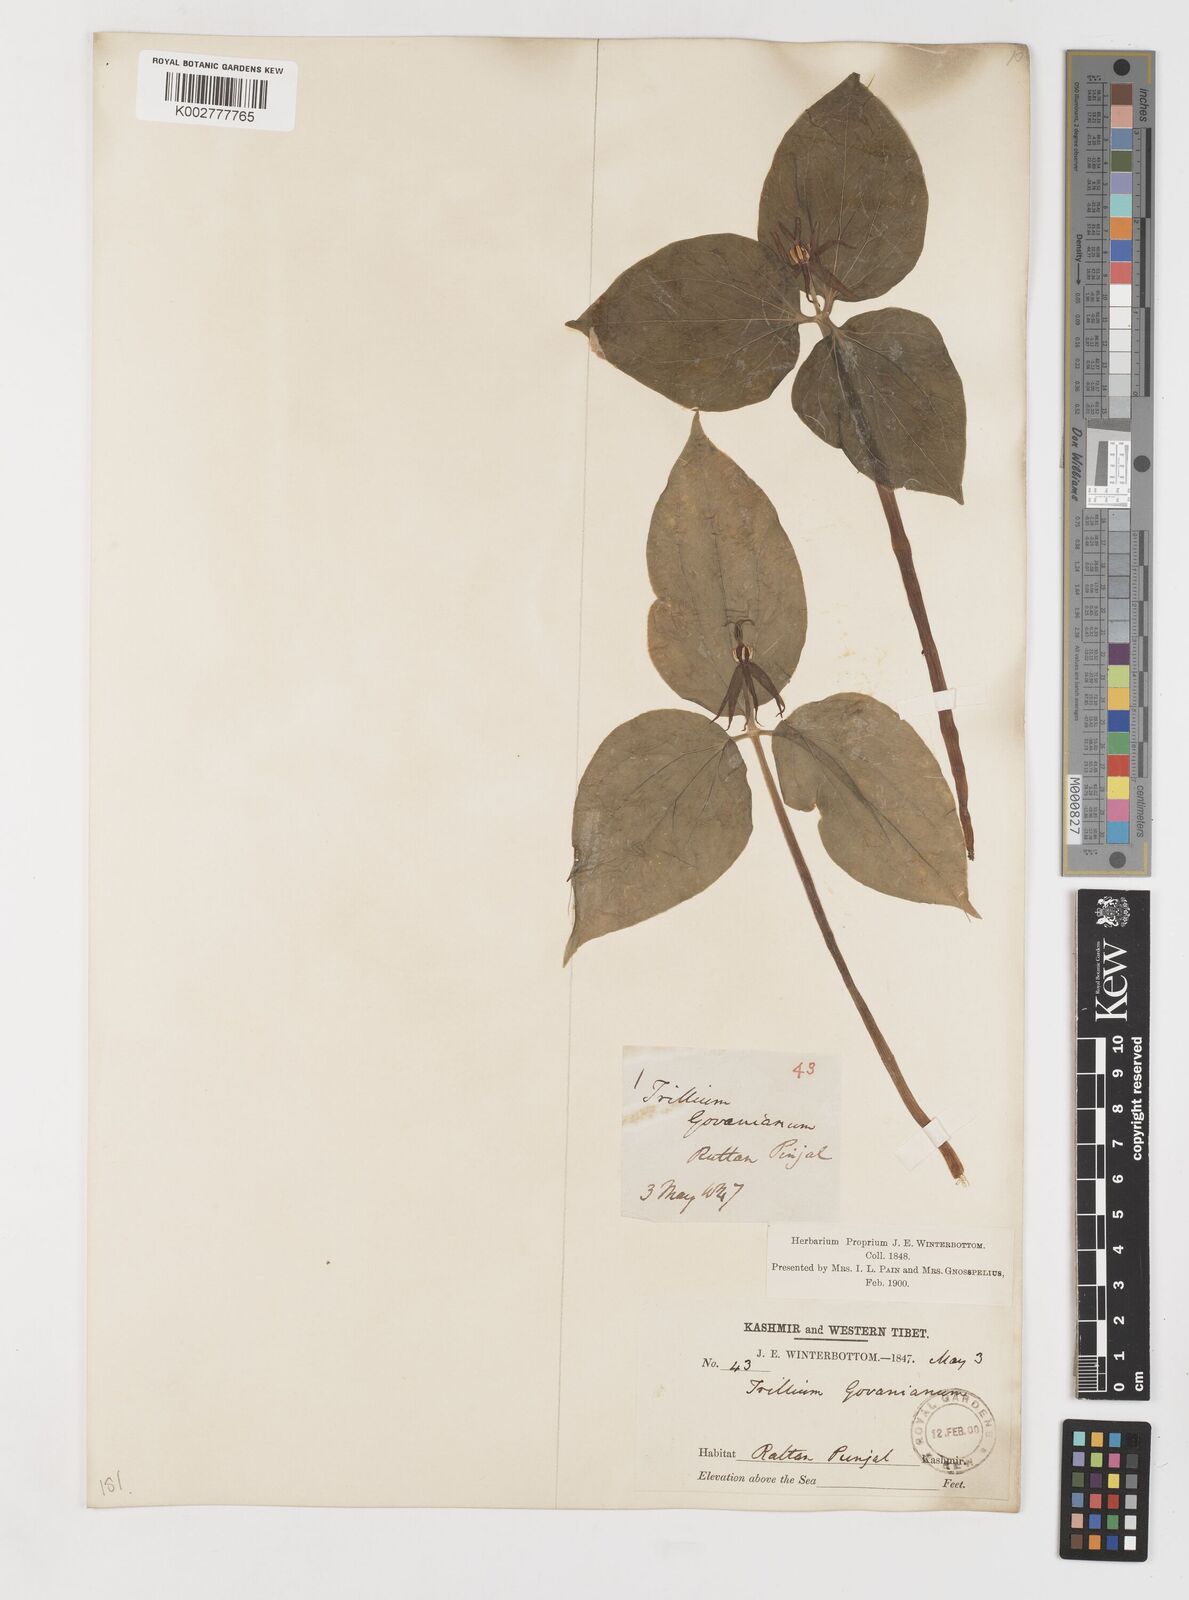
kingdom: Plantae
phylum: Tracheophyta
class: Liliopsida
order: Liliales
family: Melanthiaceae
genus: Trillium
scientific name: Trillium govanianum
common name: Himalayan trillium
